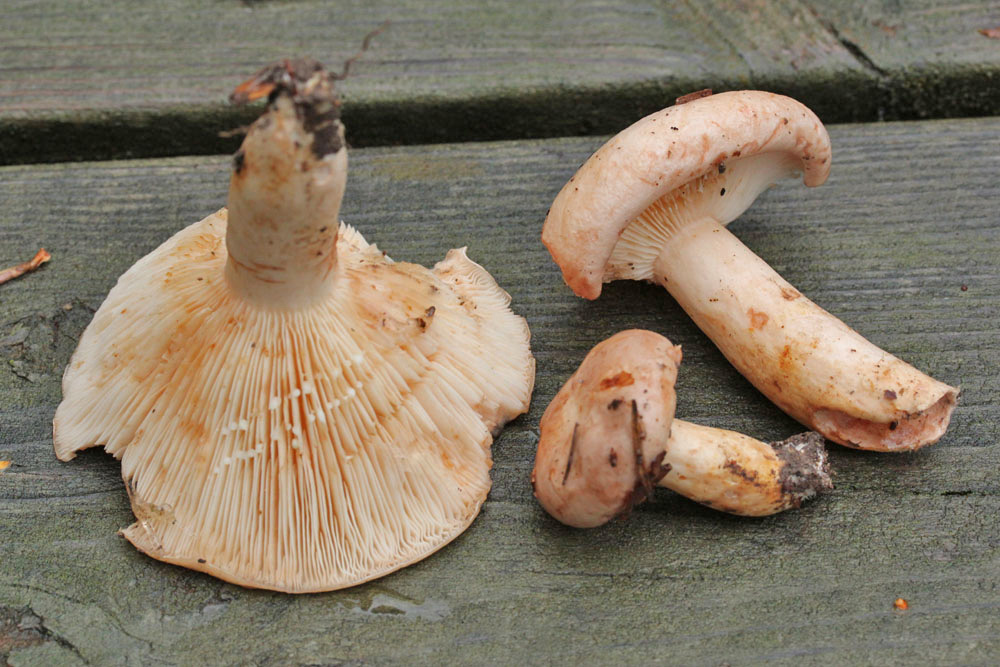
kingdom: Fungi
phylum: Basidiomycota
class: Agaricomycetes
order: Russulales
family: Russulaceae
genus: Lactarius
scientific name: Lactarius pallidus
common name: bleg mælkehat
